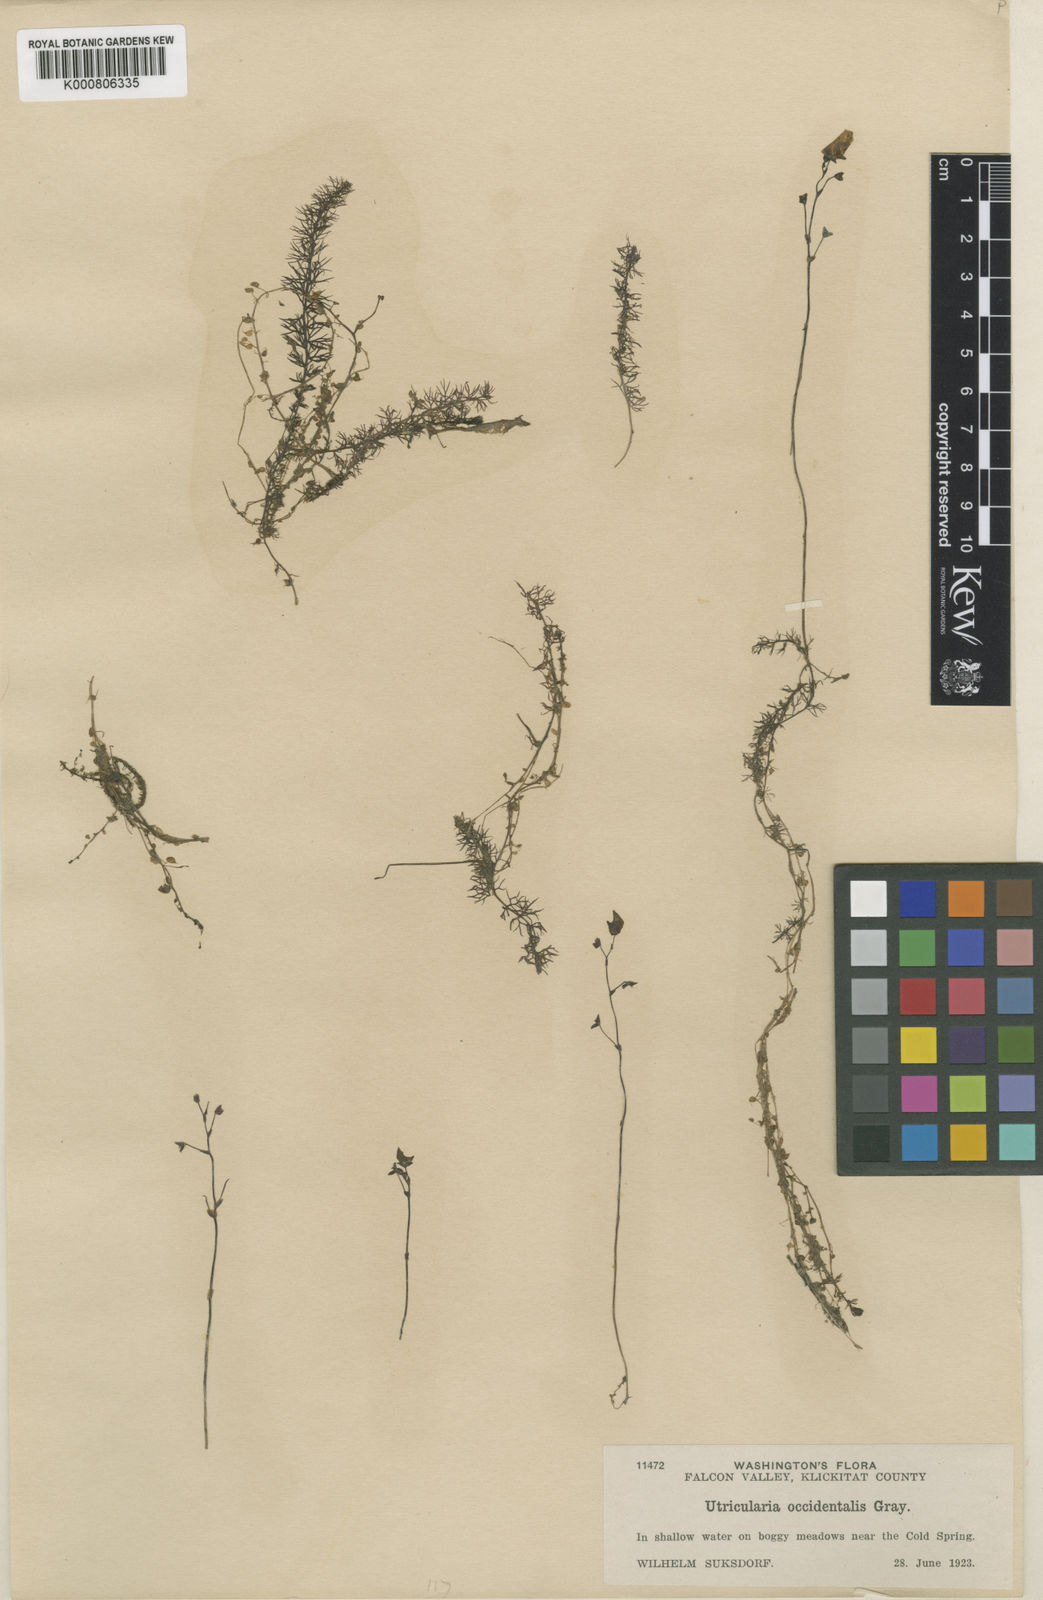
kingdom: Plantae
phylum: Tracheophyta
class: Magnoliopsida
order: Lamiales
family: Lentibulariaceae
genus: Utricularia
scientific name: Utricularia ochroleuca
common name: Pale bladderwort
